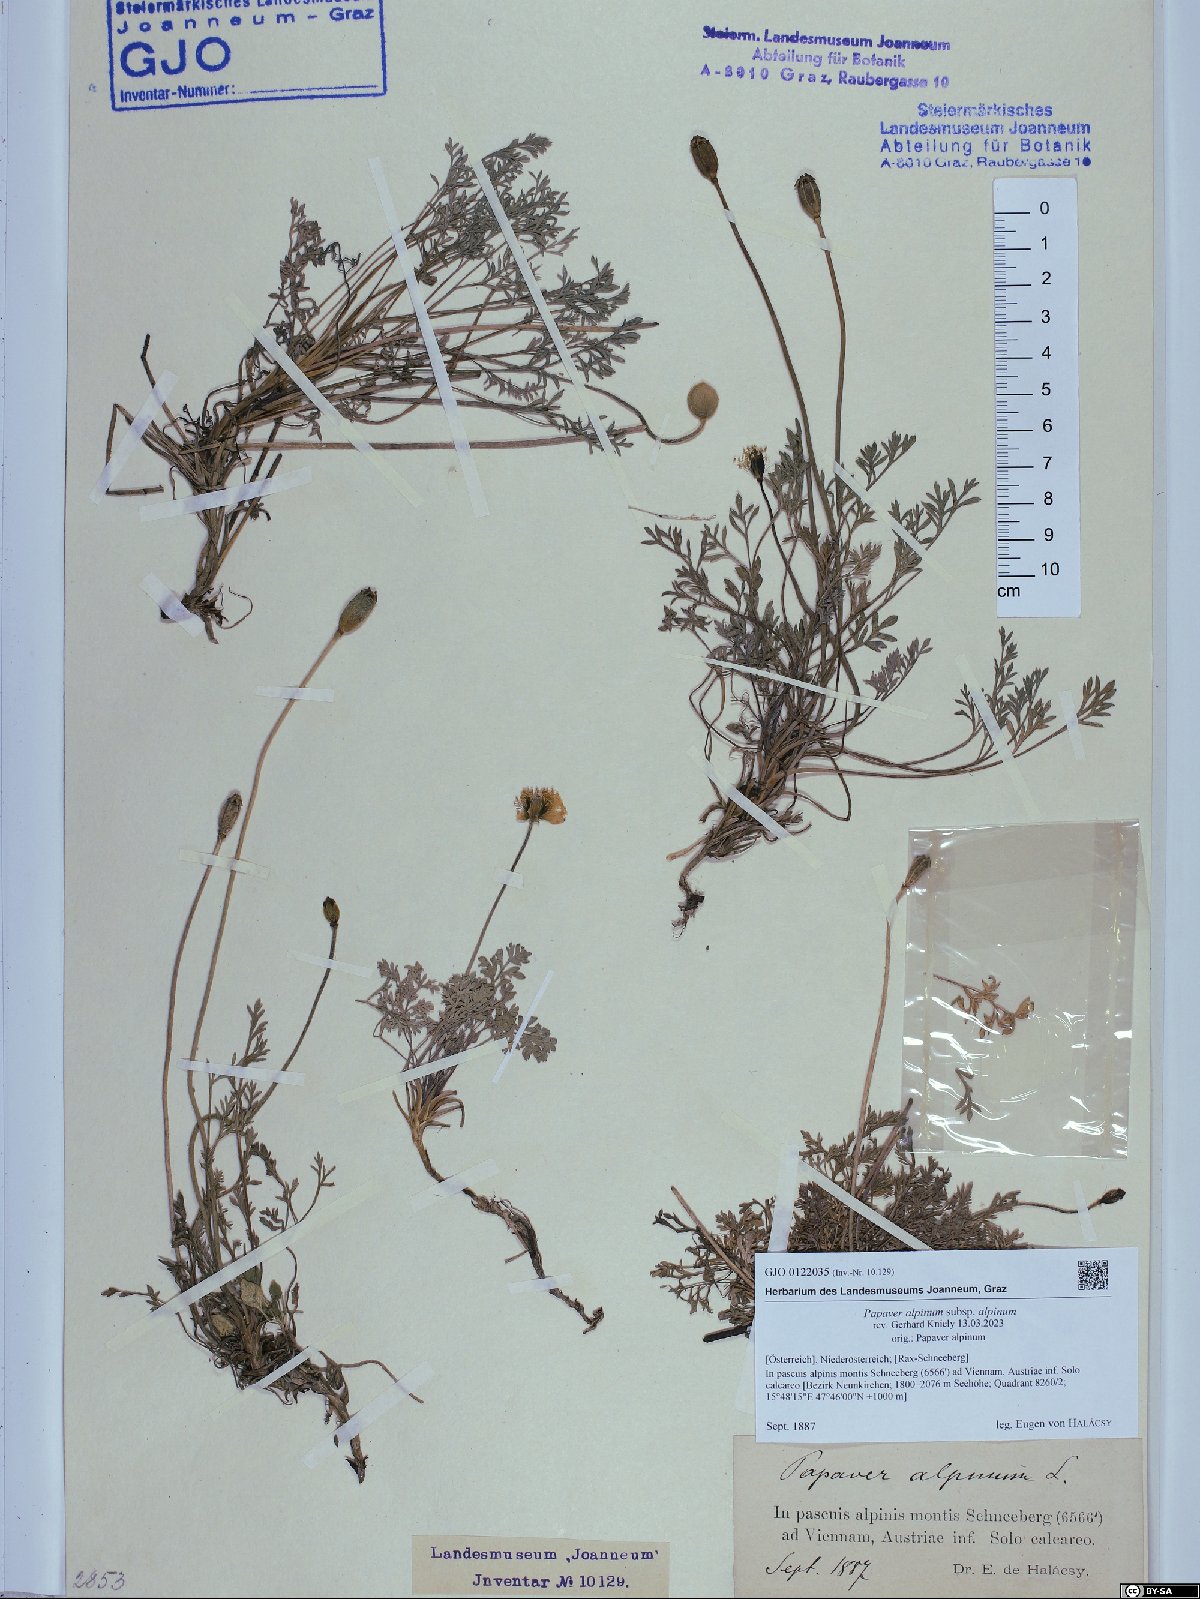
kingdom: Plantae
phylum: Tracheophyta
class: Magnoliopsida
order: Ranunculales
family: Papaveraceae
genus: Papaver
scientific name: Papaver alpinum
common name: Austrian poppy
